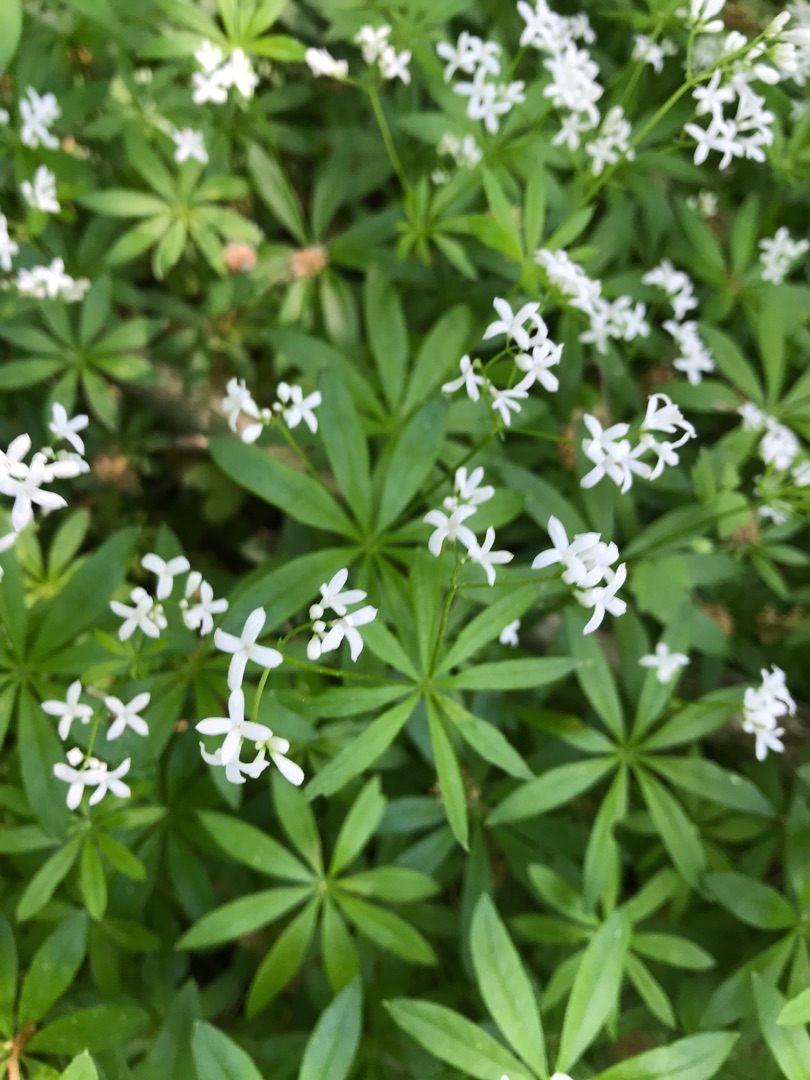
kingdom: Plantae
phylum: Tracheophyta
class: Magnoliopsida
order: Gentianales
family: Rubiaceae
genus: Galium
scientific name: Galium odoratum
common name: Skovmærke
